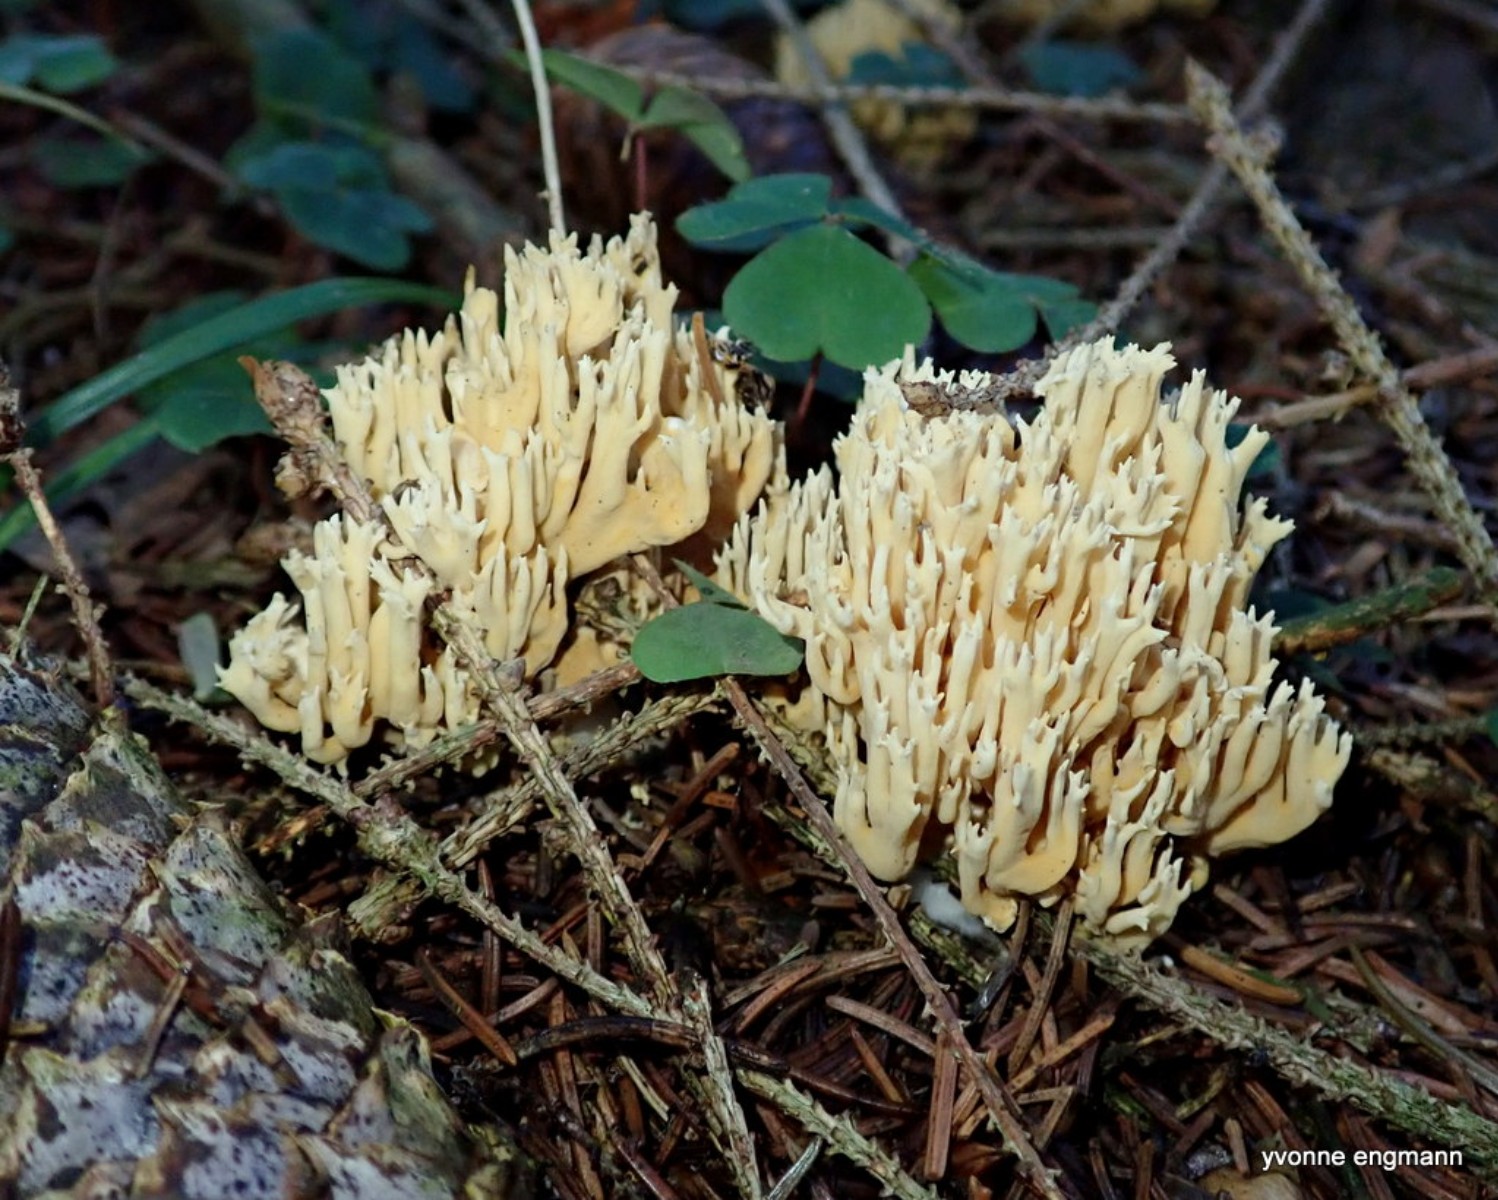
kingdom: Fungi
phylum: Basidiomycota
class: Agaricomycetes
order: Gomphales
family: Gomphaceae
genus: Phaeoclavulina
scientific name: Phaeoclavulina eumorpha
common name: gran-koralsvamp
